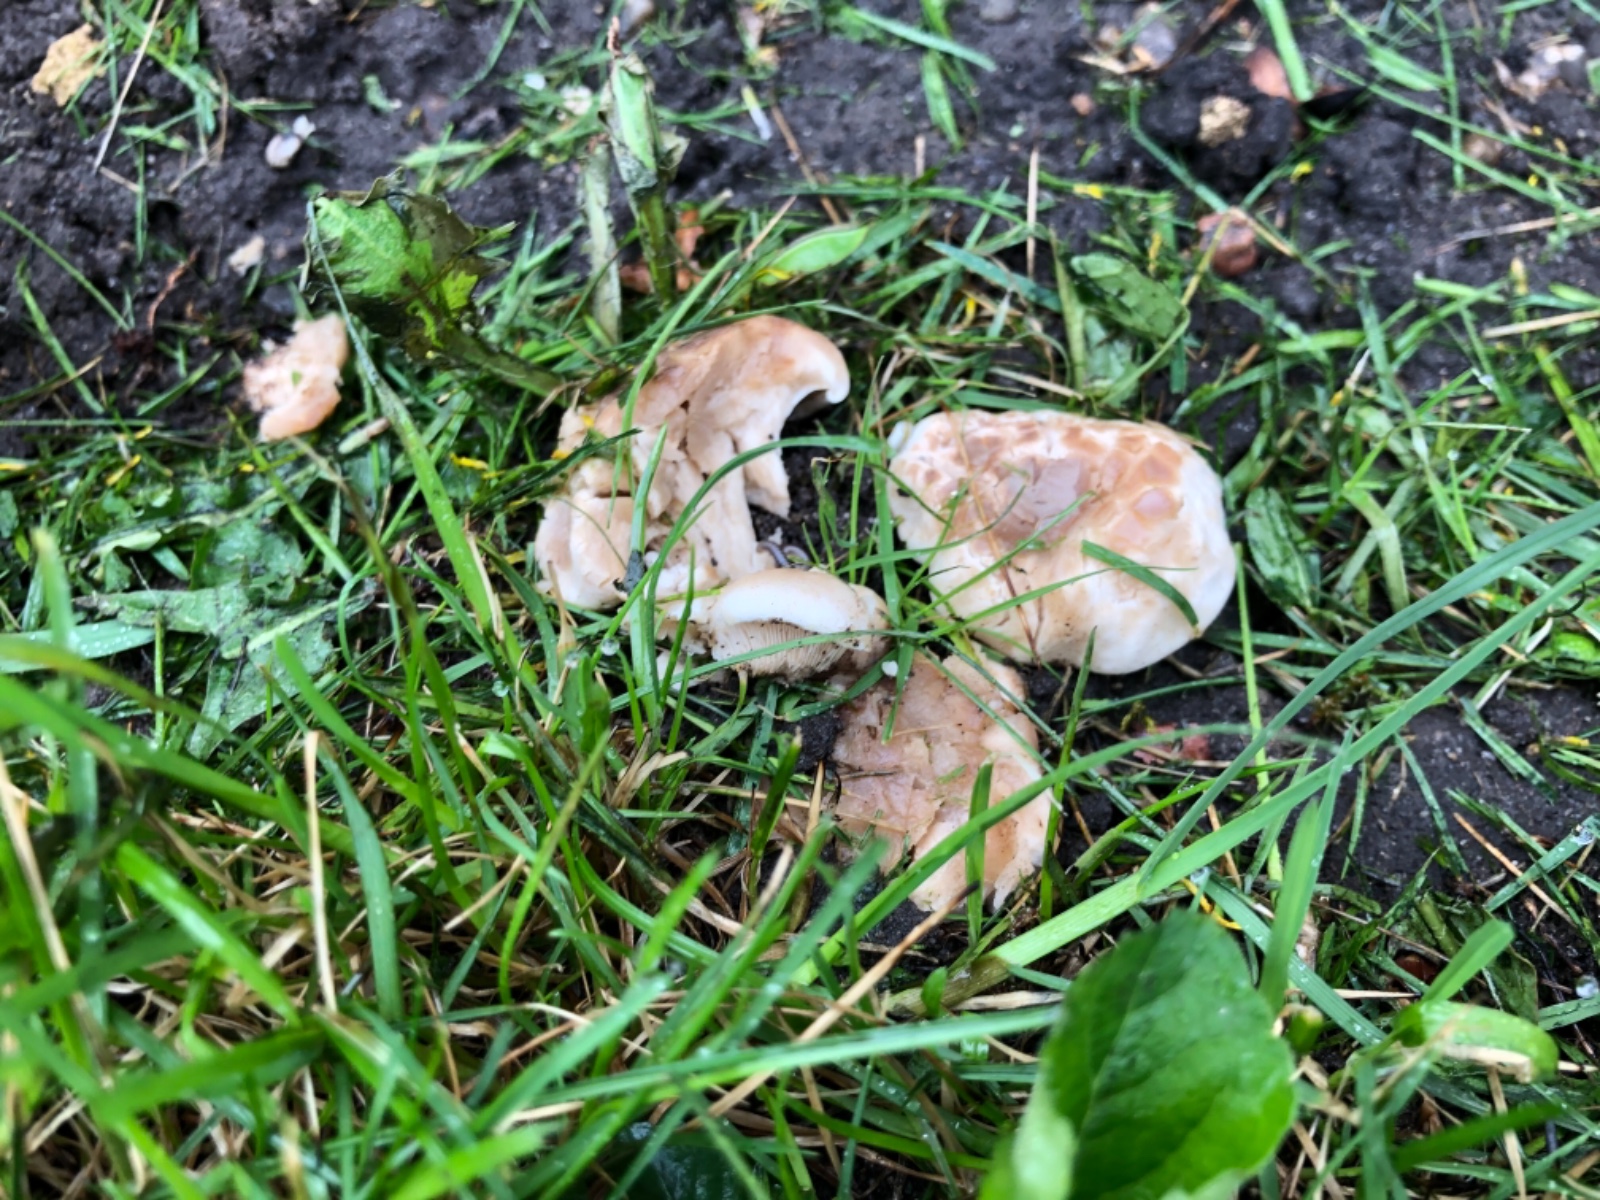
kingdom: Fungi
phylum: Basidiomycota
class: Agaricomycetes
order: Agaricales
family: Lyophyllaceae
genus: Calocybe
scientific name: Calocybe gambosa
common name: vårmusseron
